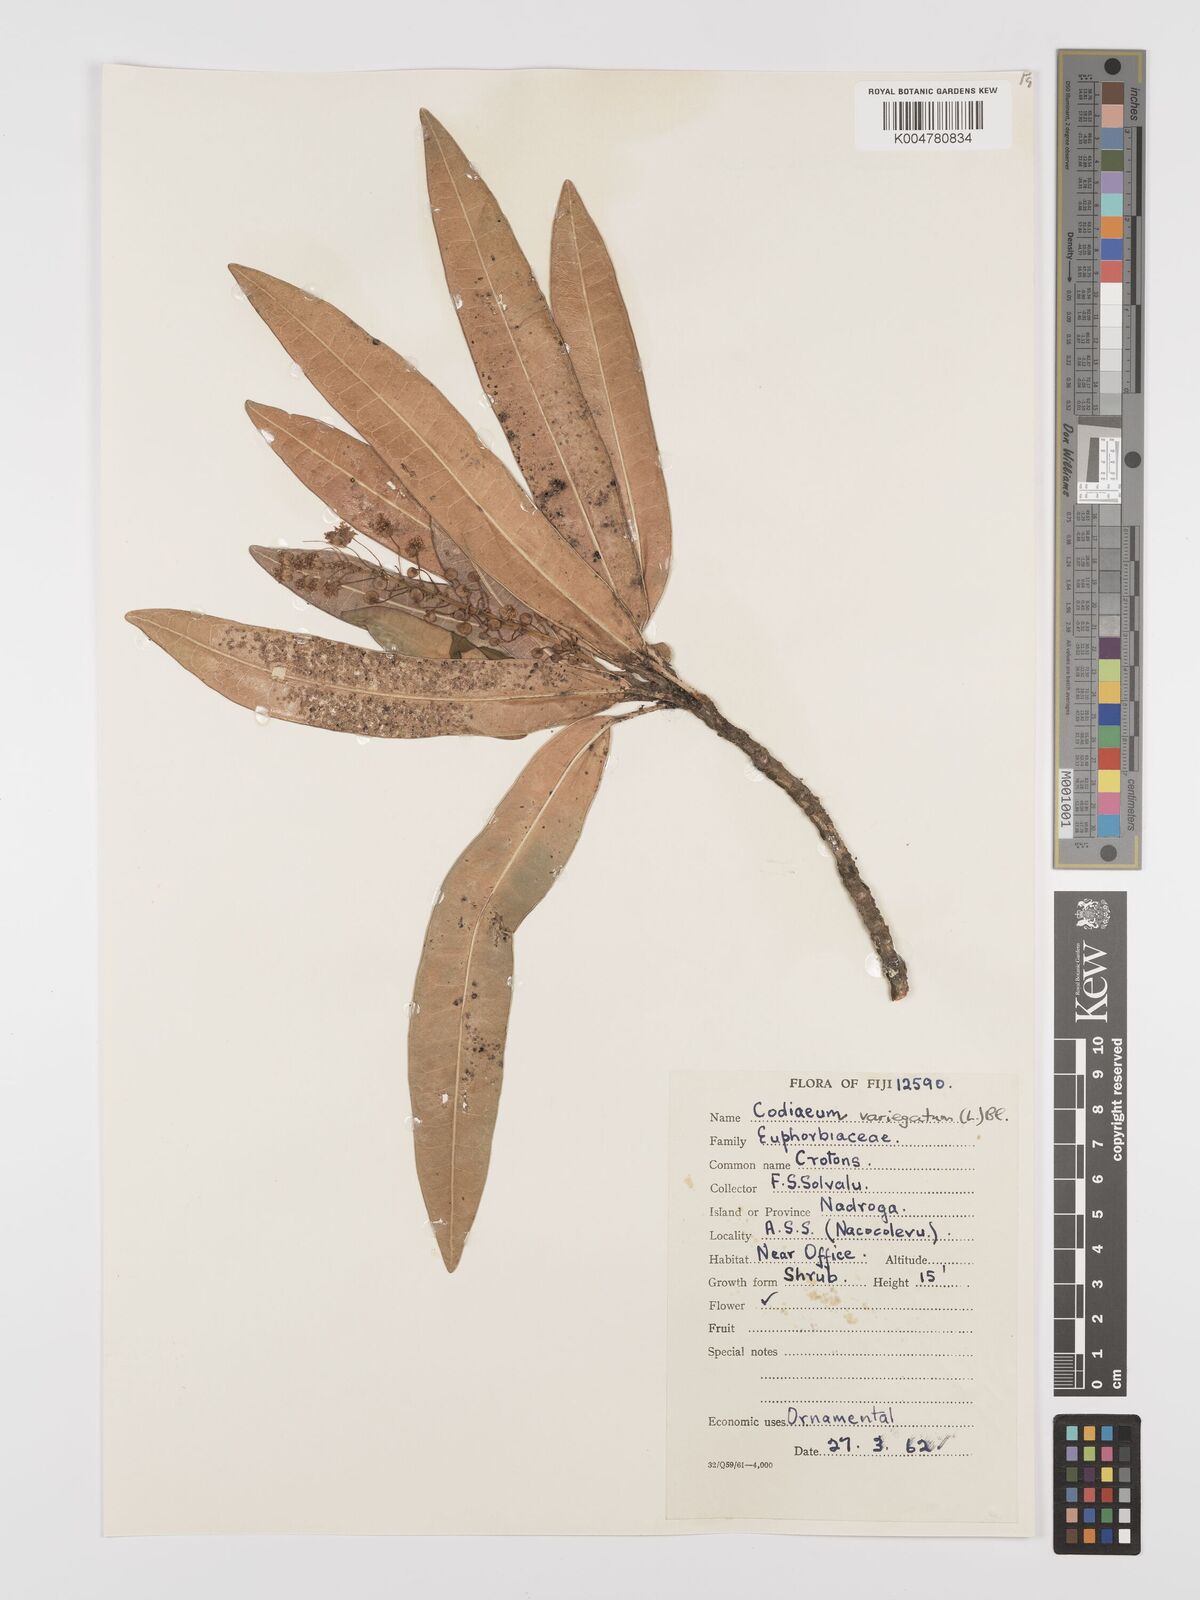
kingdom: Plantae
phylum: Tracheophyta
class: Magnoliopsida
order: Malpighiales
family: Euphorbiaceae
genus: Codiaeum
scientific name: Codiaeum variegatum
